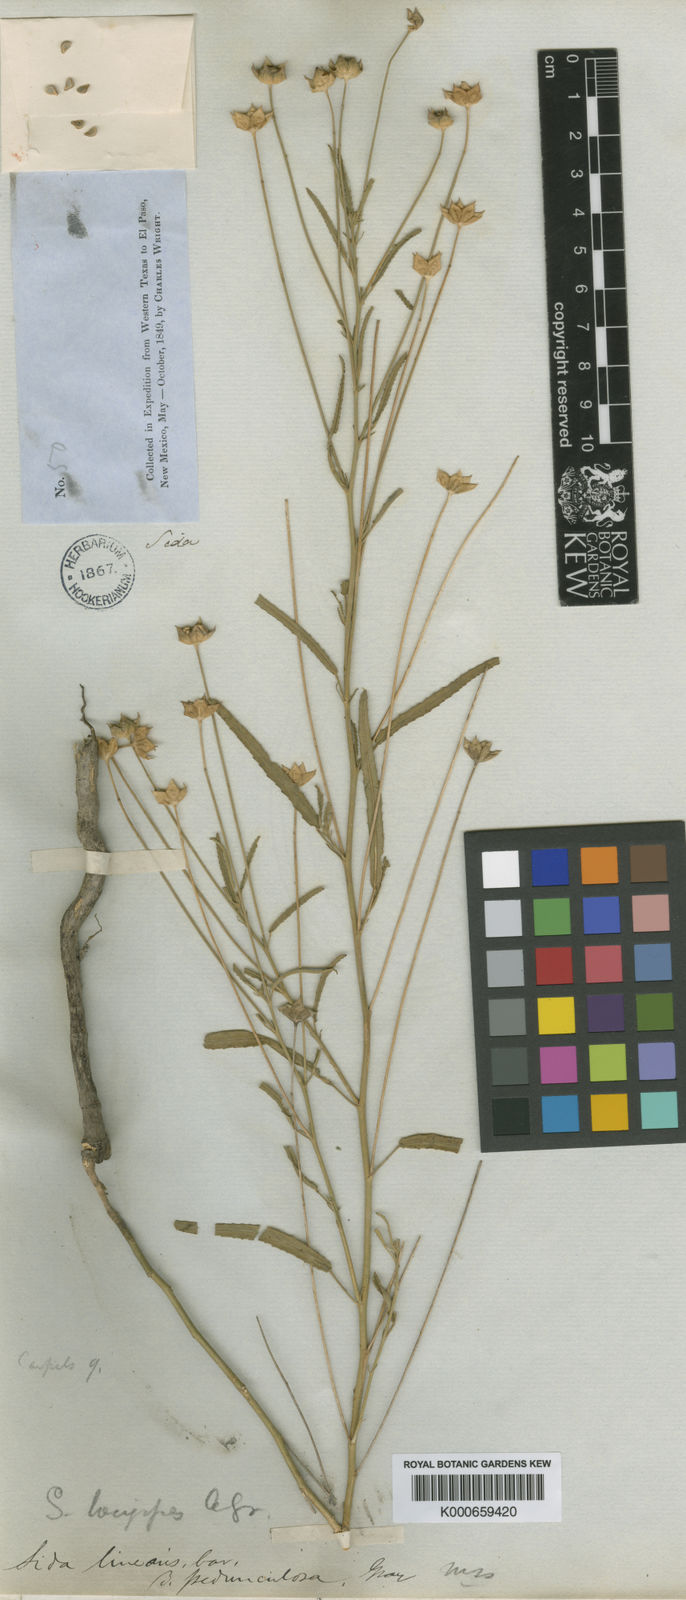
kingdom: Plantae
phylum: Tracheophyta
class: Magnoliopsida
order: Malvales
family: Malvaceae
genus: Sida
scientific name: Sida longipes
